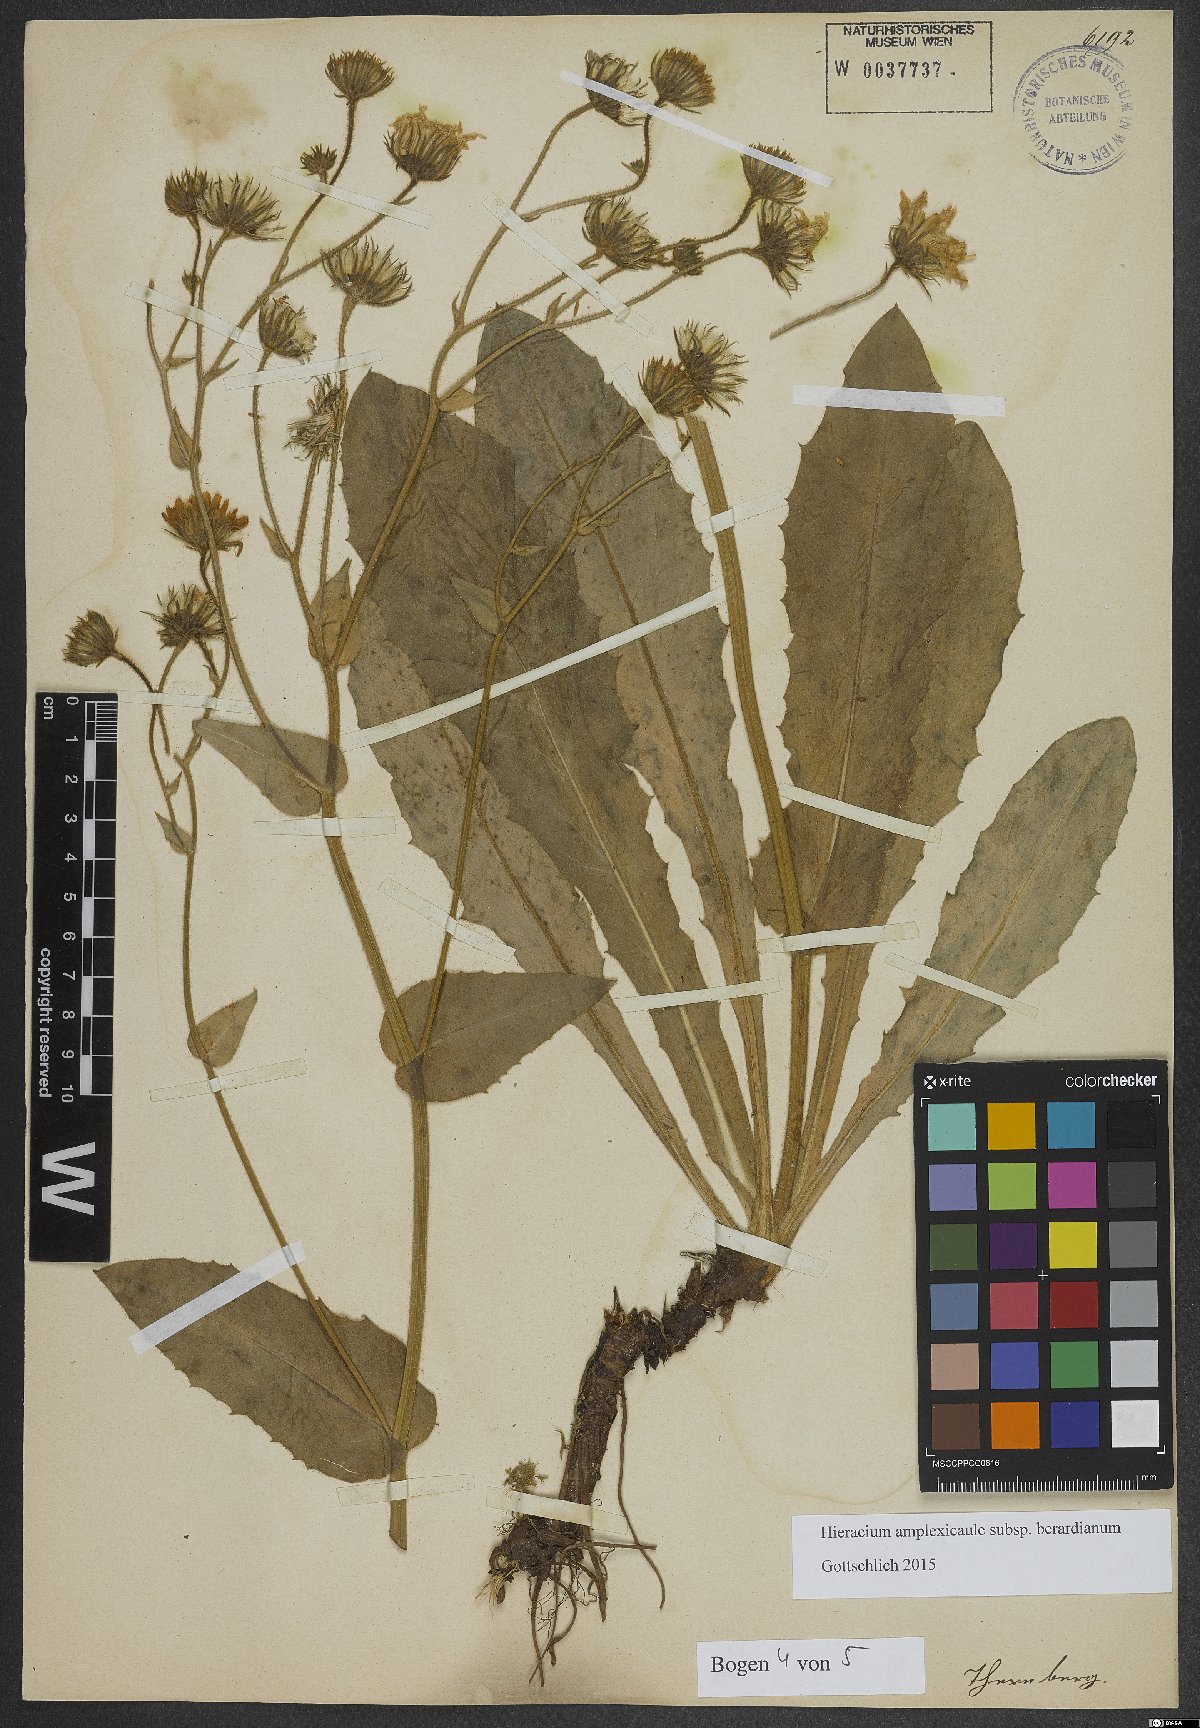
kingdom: Plantae
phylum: Tracheophyta
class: Magnoliopsida
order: Asterales
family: Asteraceae
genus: Hieracium
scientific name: Hieracium amplexicaule
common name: Sticky hawkweed
